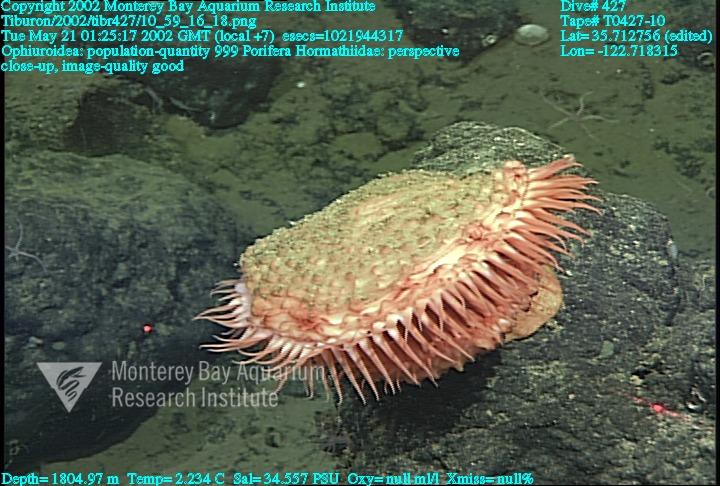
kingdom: Animalia
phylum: Porifera
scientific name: Porifera
